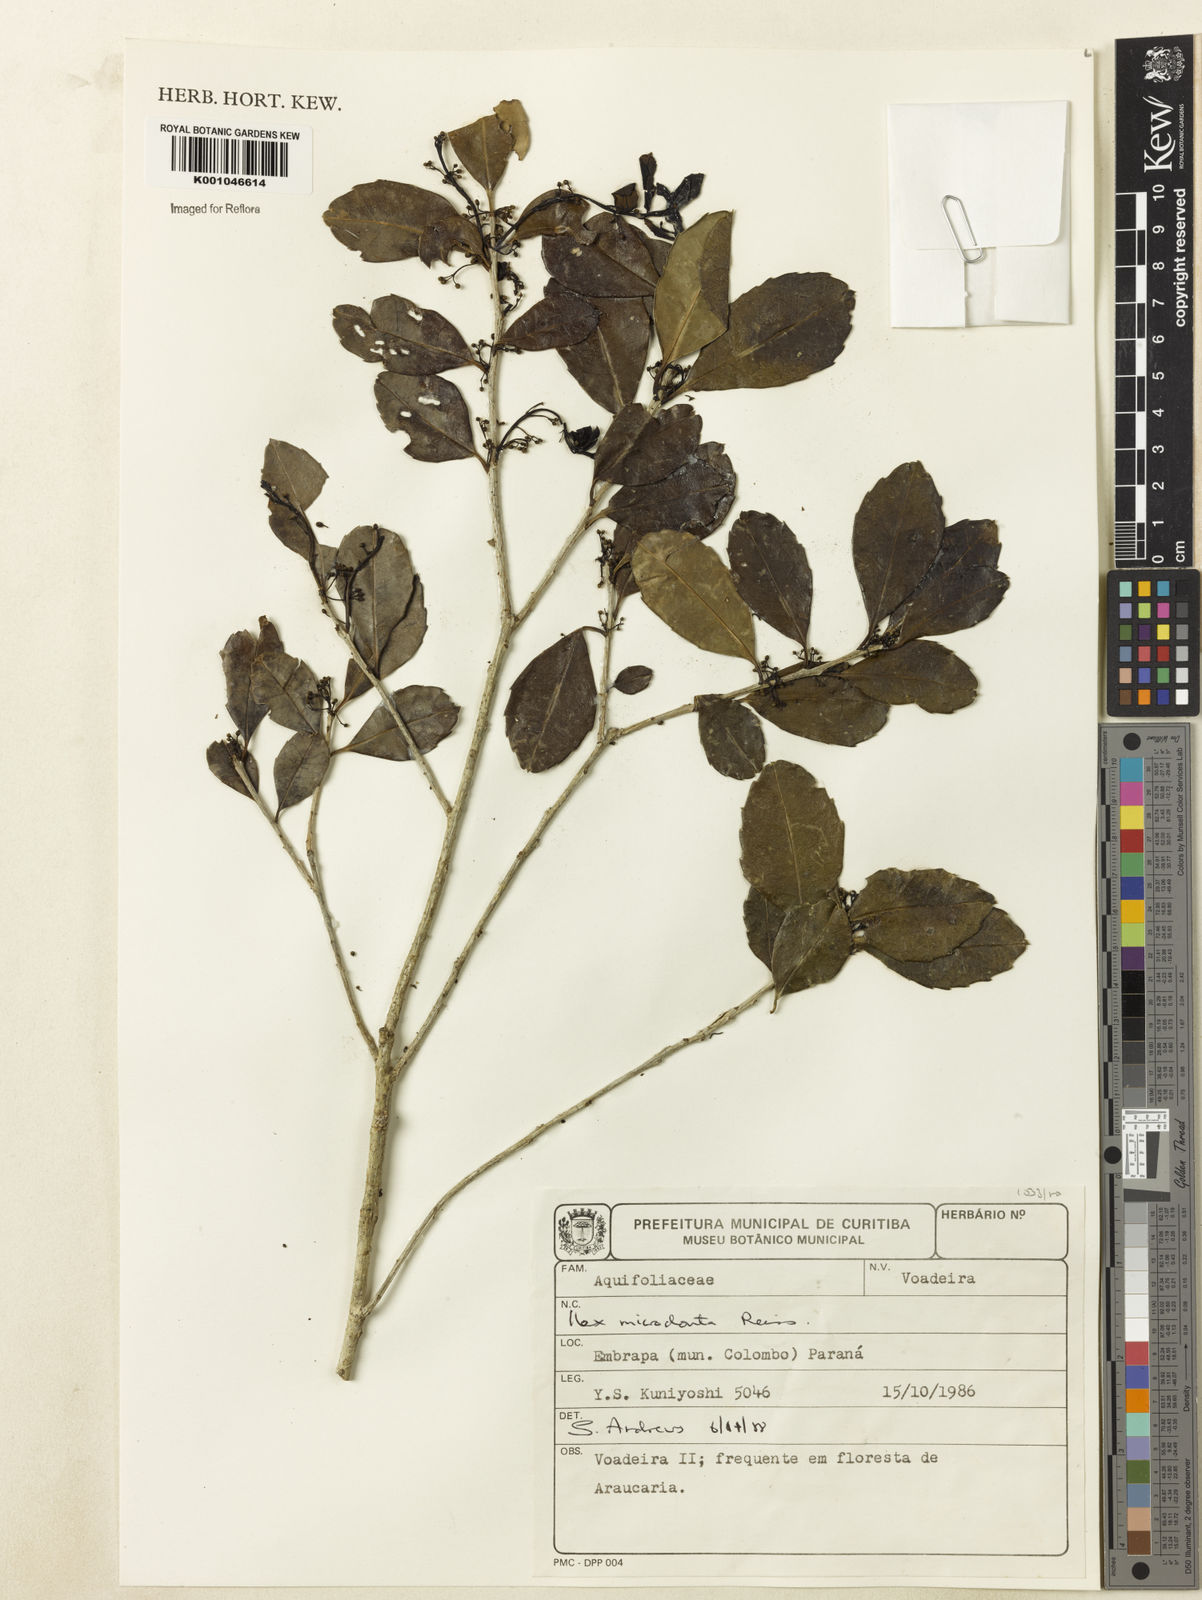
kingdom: Plantae
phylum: Tracheophyta
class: Magnoliopsida
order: Aquifoliales
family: Aquifoliaceae
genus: Ilex
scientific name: Ilex microdonta
